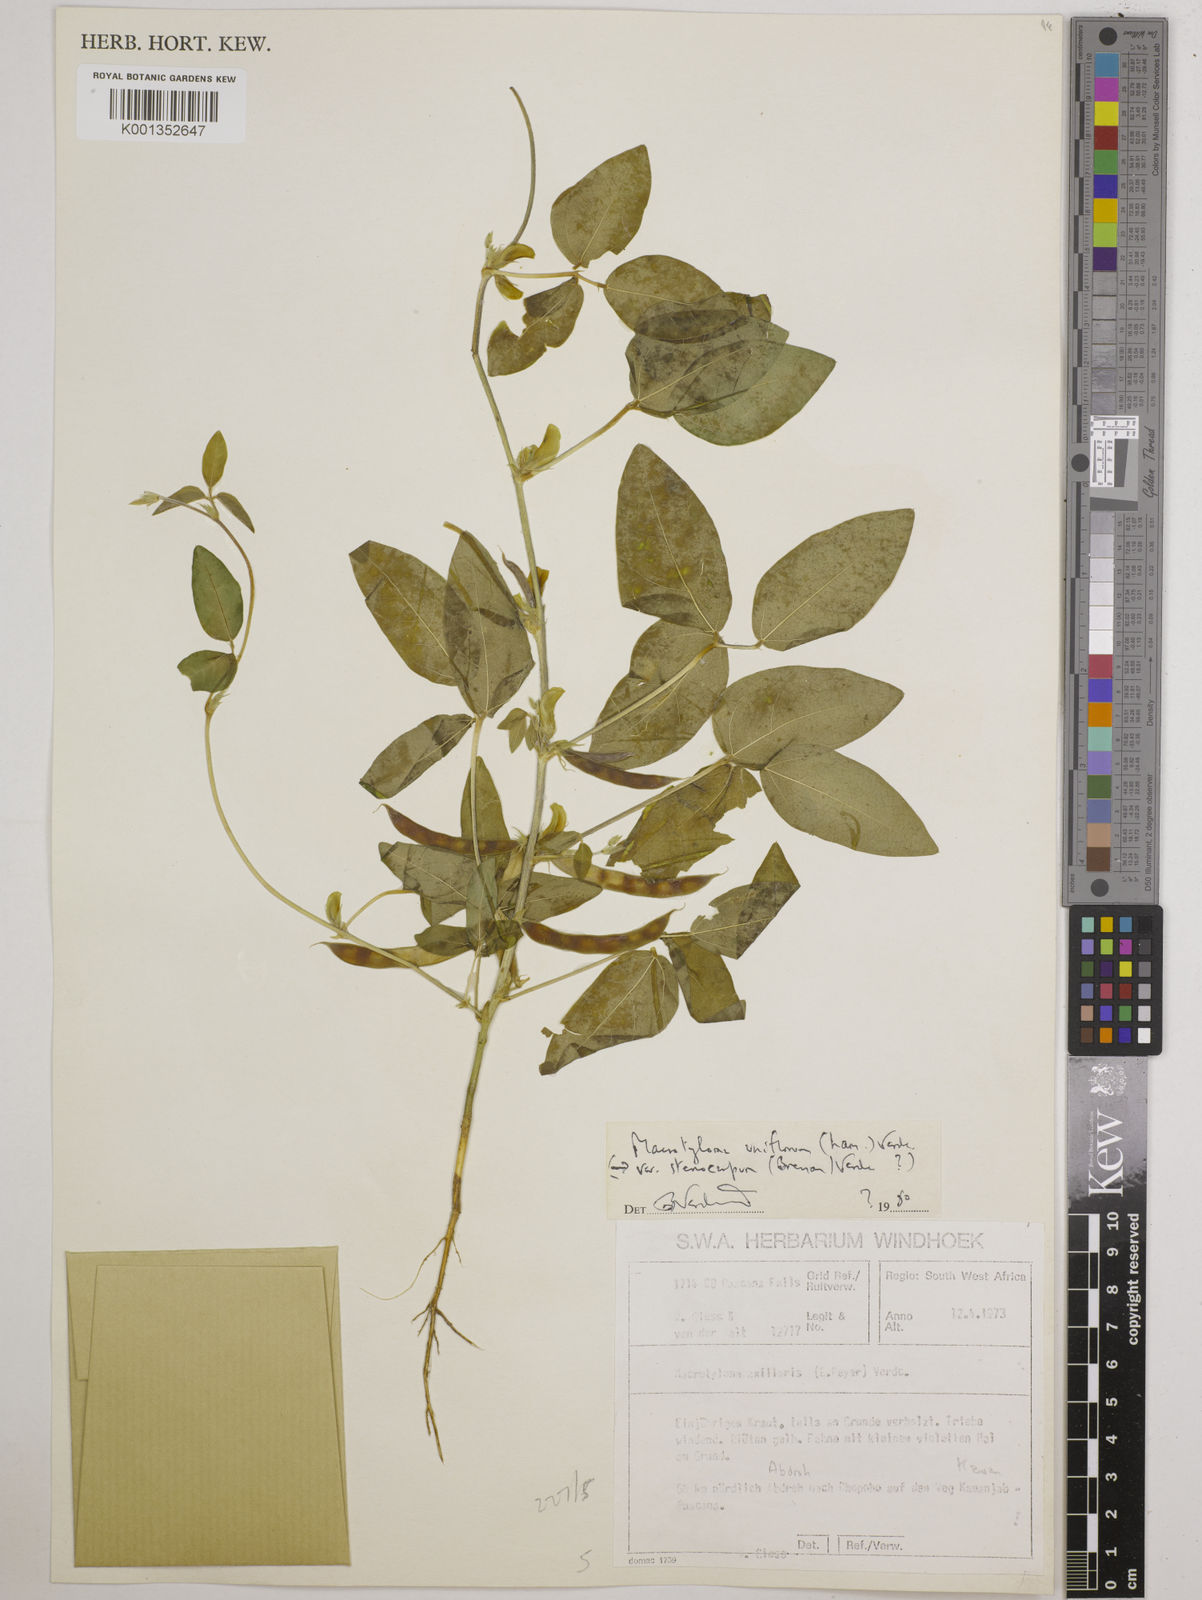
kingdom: Plantae
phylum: Tracheophyta
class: Magnoliopsida
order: Fabales
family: Fabaceae
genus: Macrotyloma
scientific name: Macrotyloma uniflorum
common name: Horse gram
